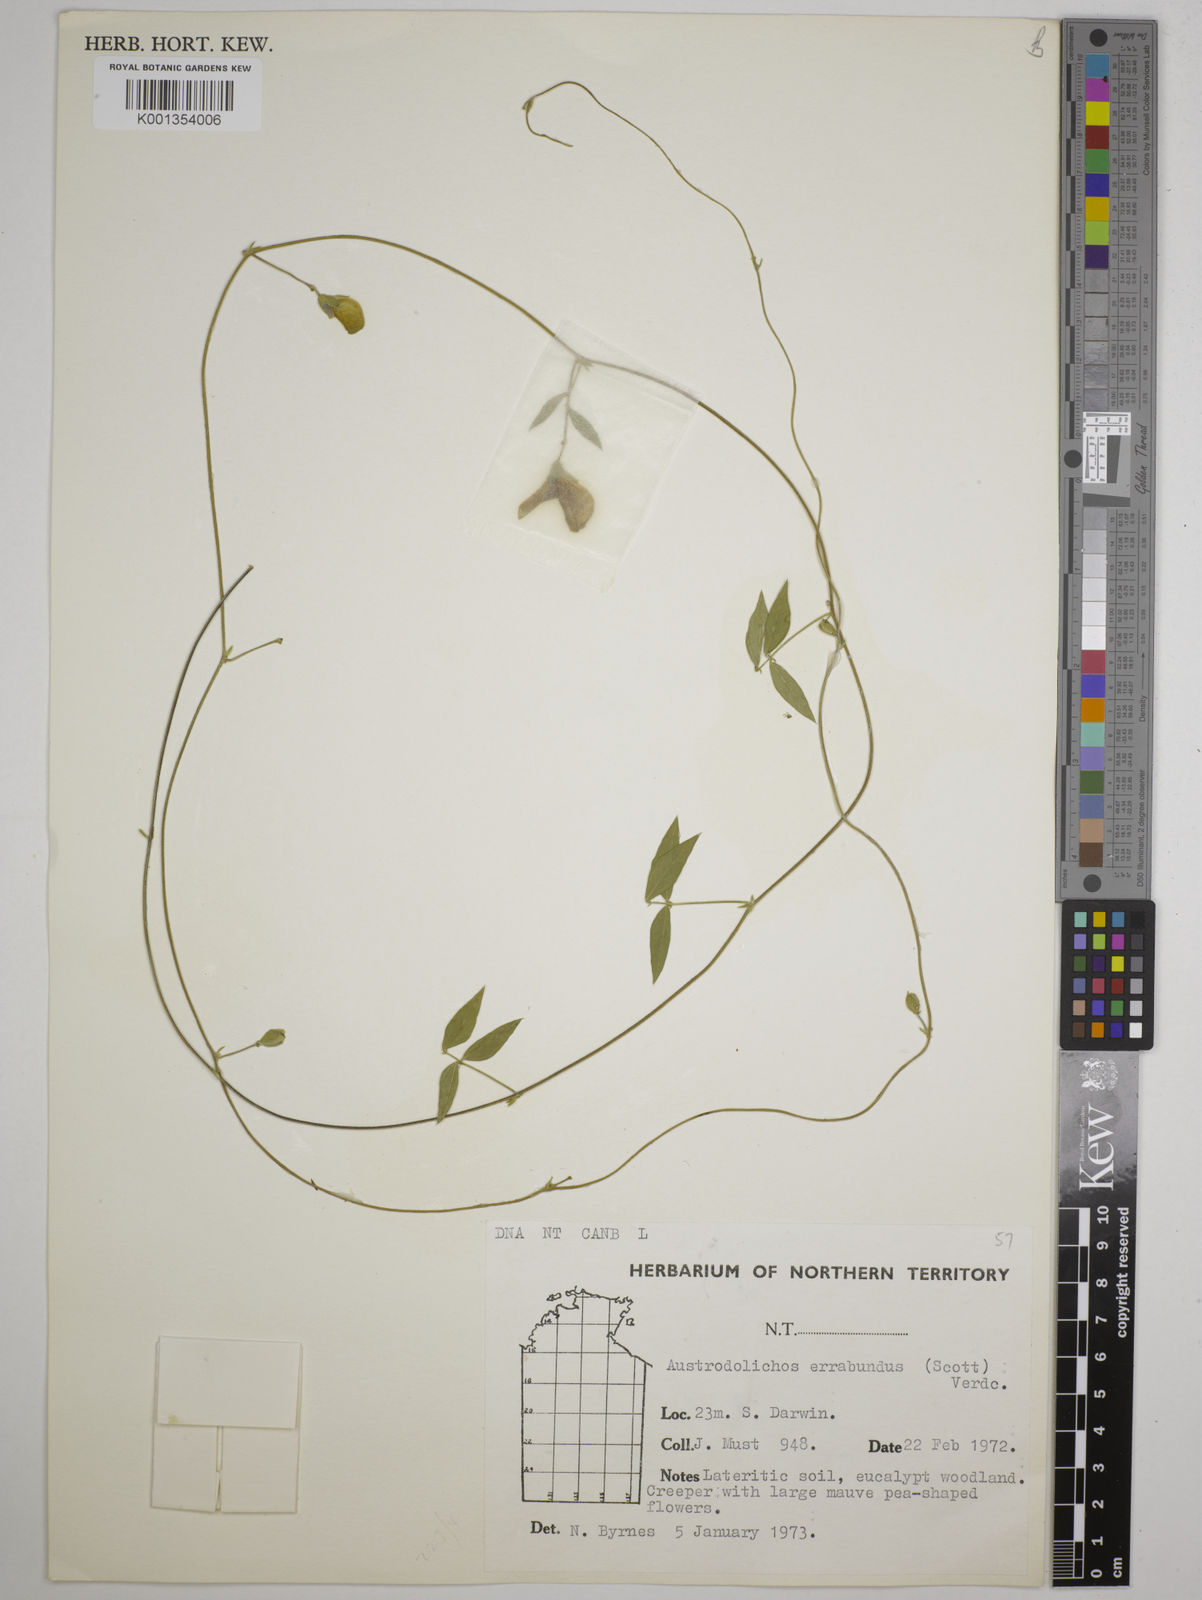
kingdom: Plantae
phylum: Tracheophyta
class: Magnoliopsida
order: Fabales
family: Fabaceae
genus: Austrodolichos
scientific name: Austrodolichos errabundus
